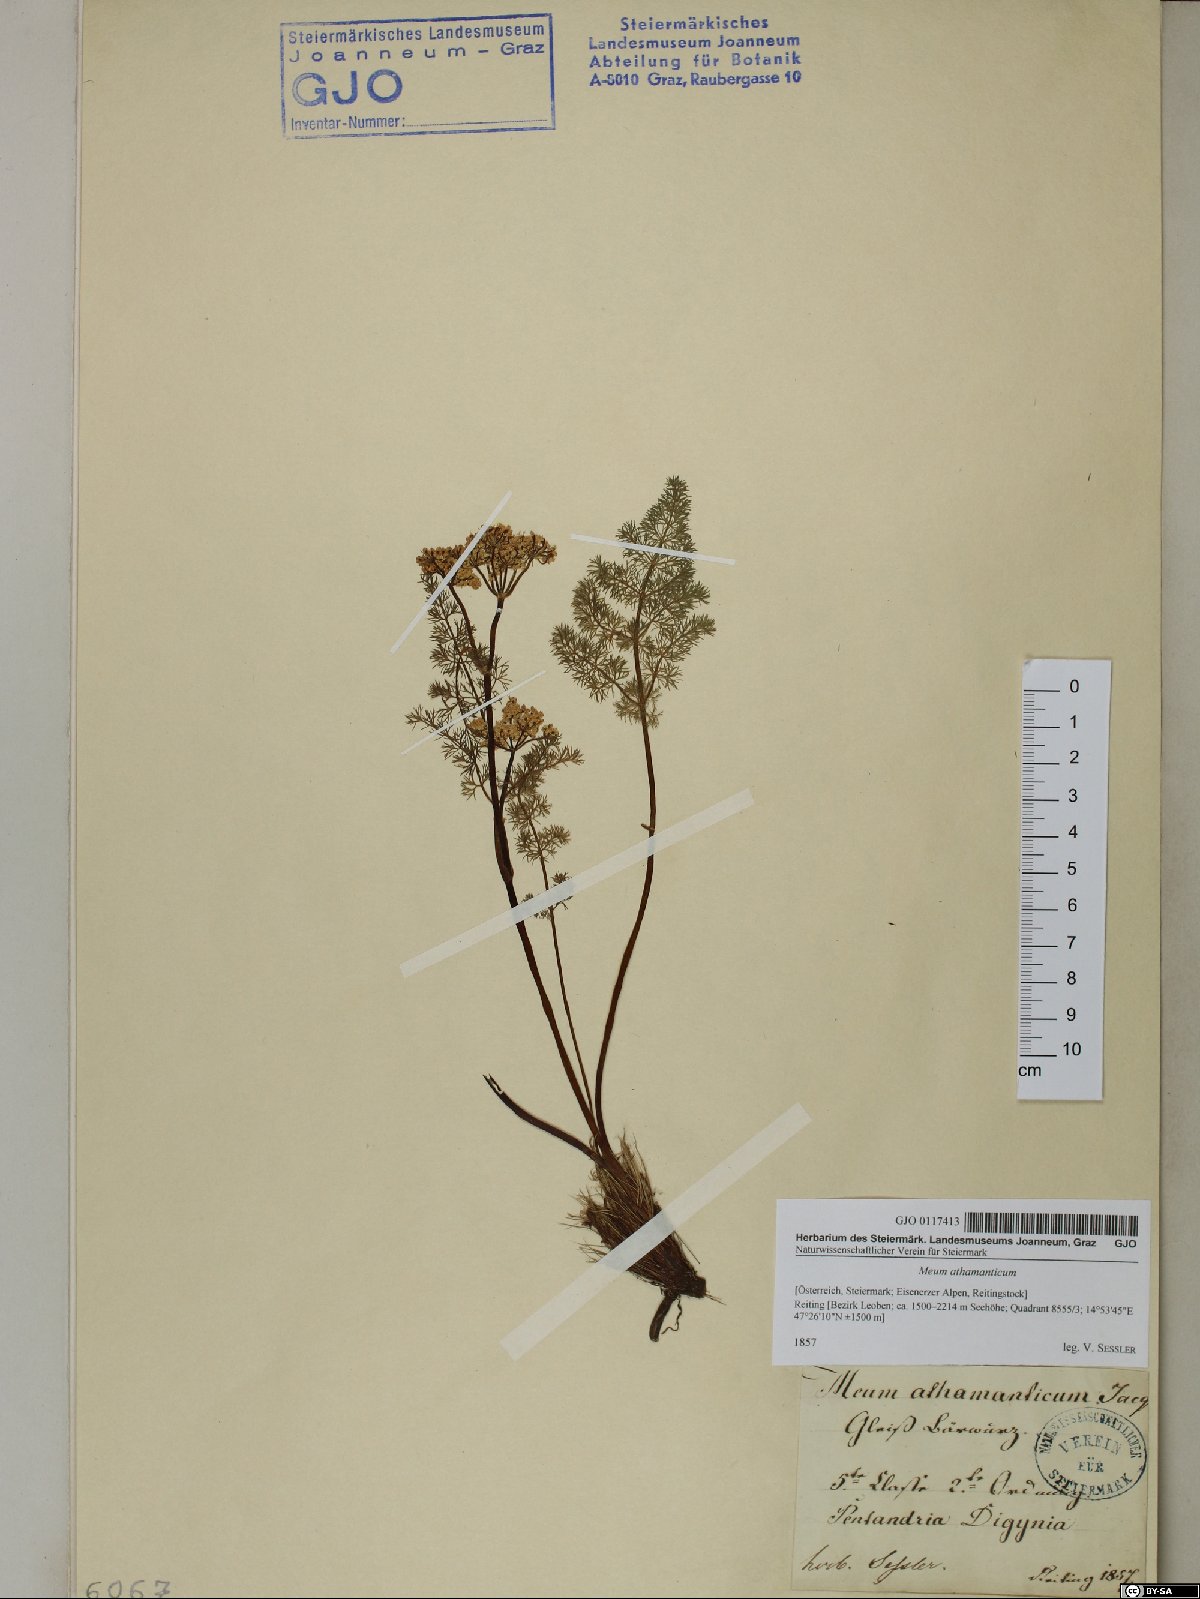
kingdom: Plantae
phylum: Tracheophyta
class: Magnoliopsida
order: Apiales
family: Apiaceae
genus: Meum
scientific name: Meum athamanticum
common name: Spignel
